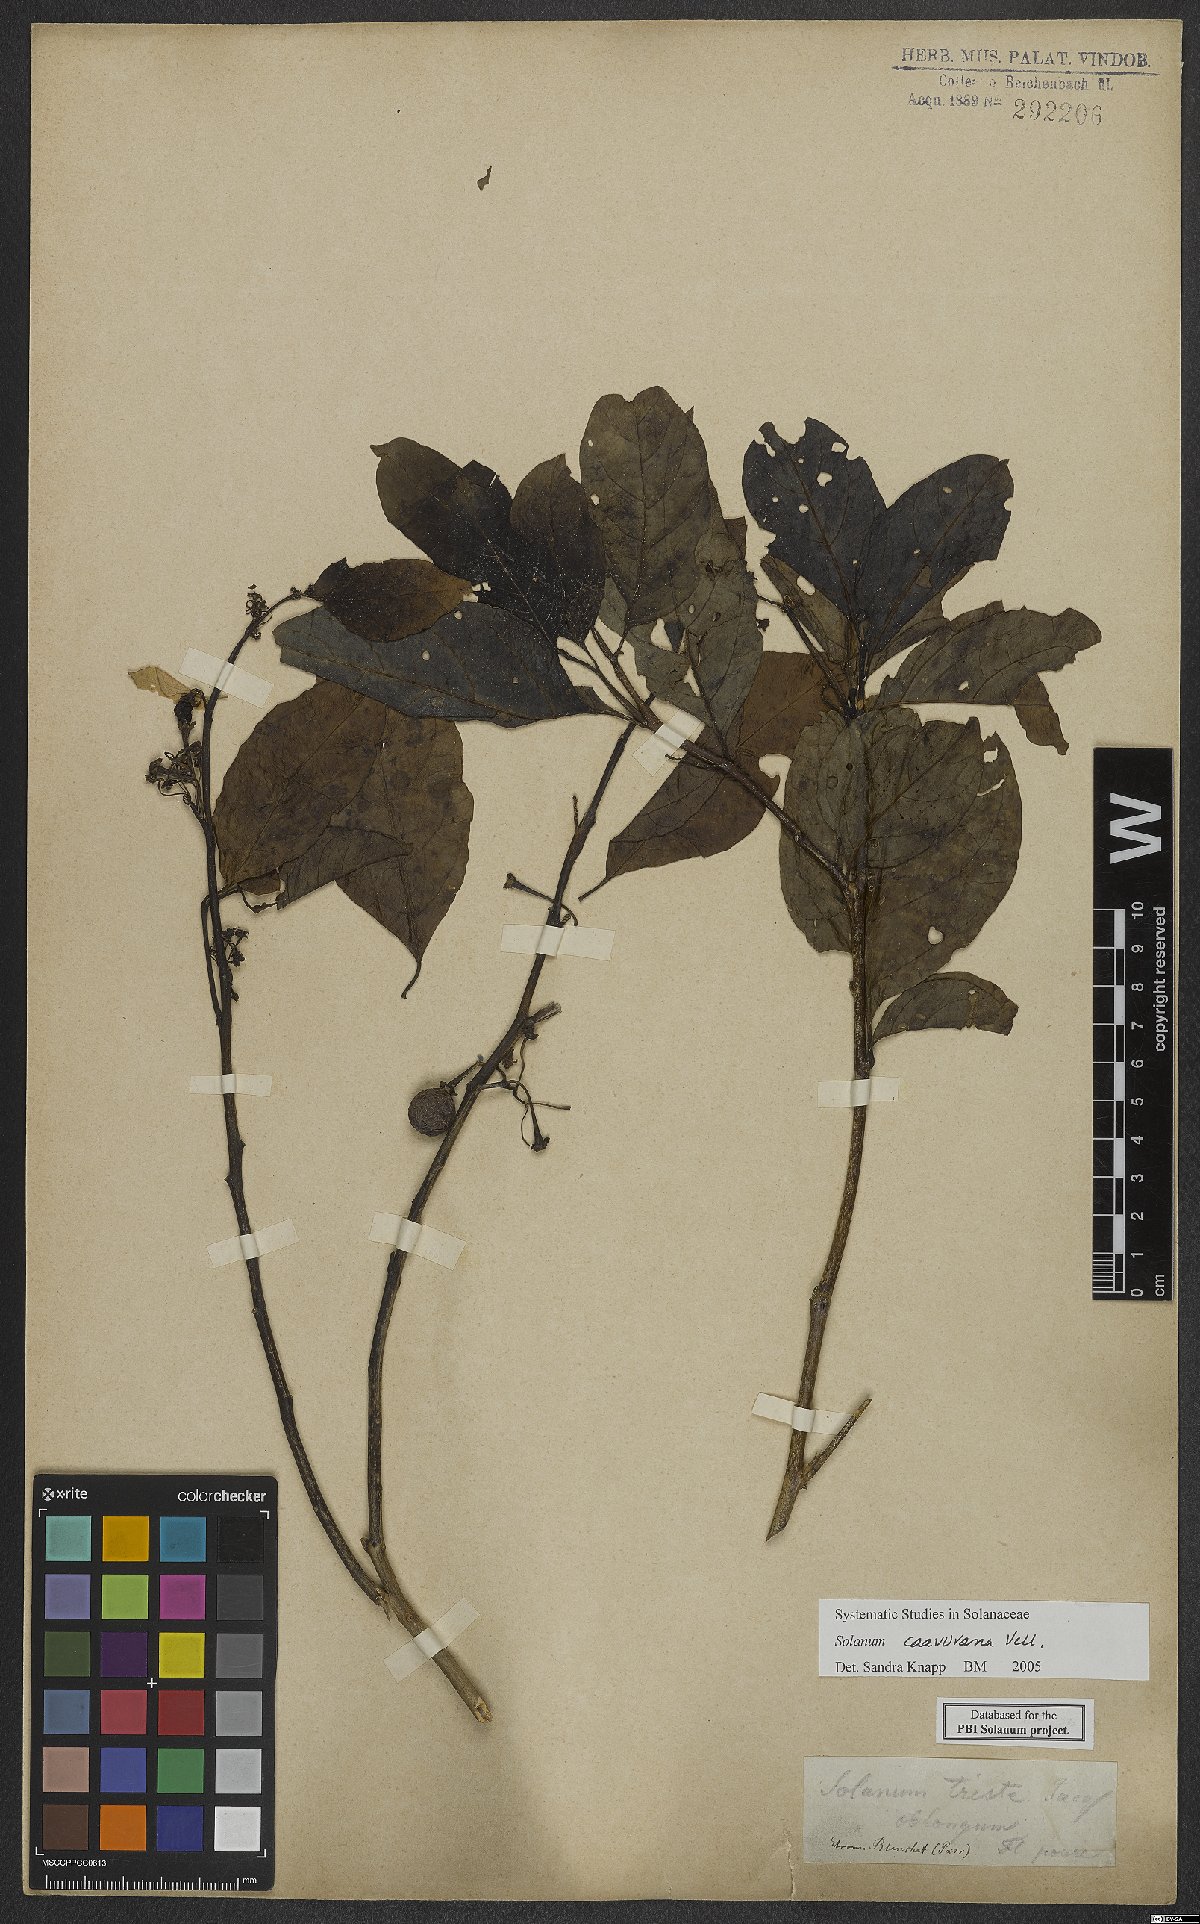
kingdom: Plantae
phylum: Tracheophyta
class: Magnoliopsida
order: Solanales
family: Solanaceae
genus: Solanum
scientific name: Solanum caavurana
